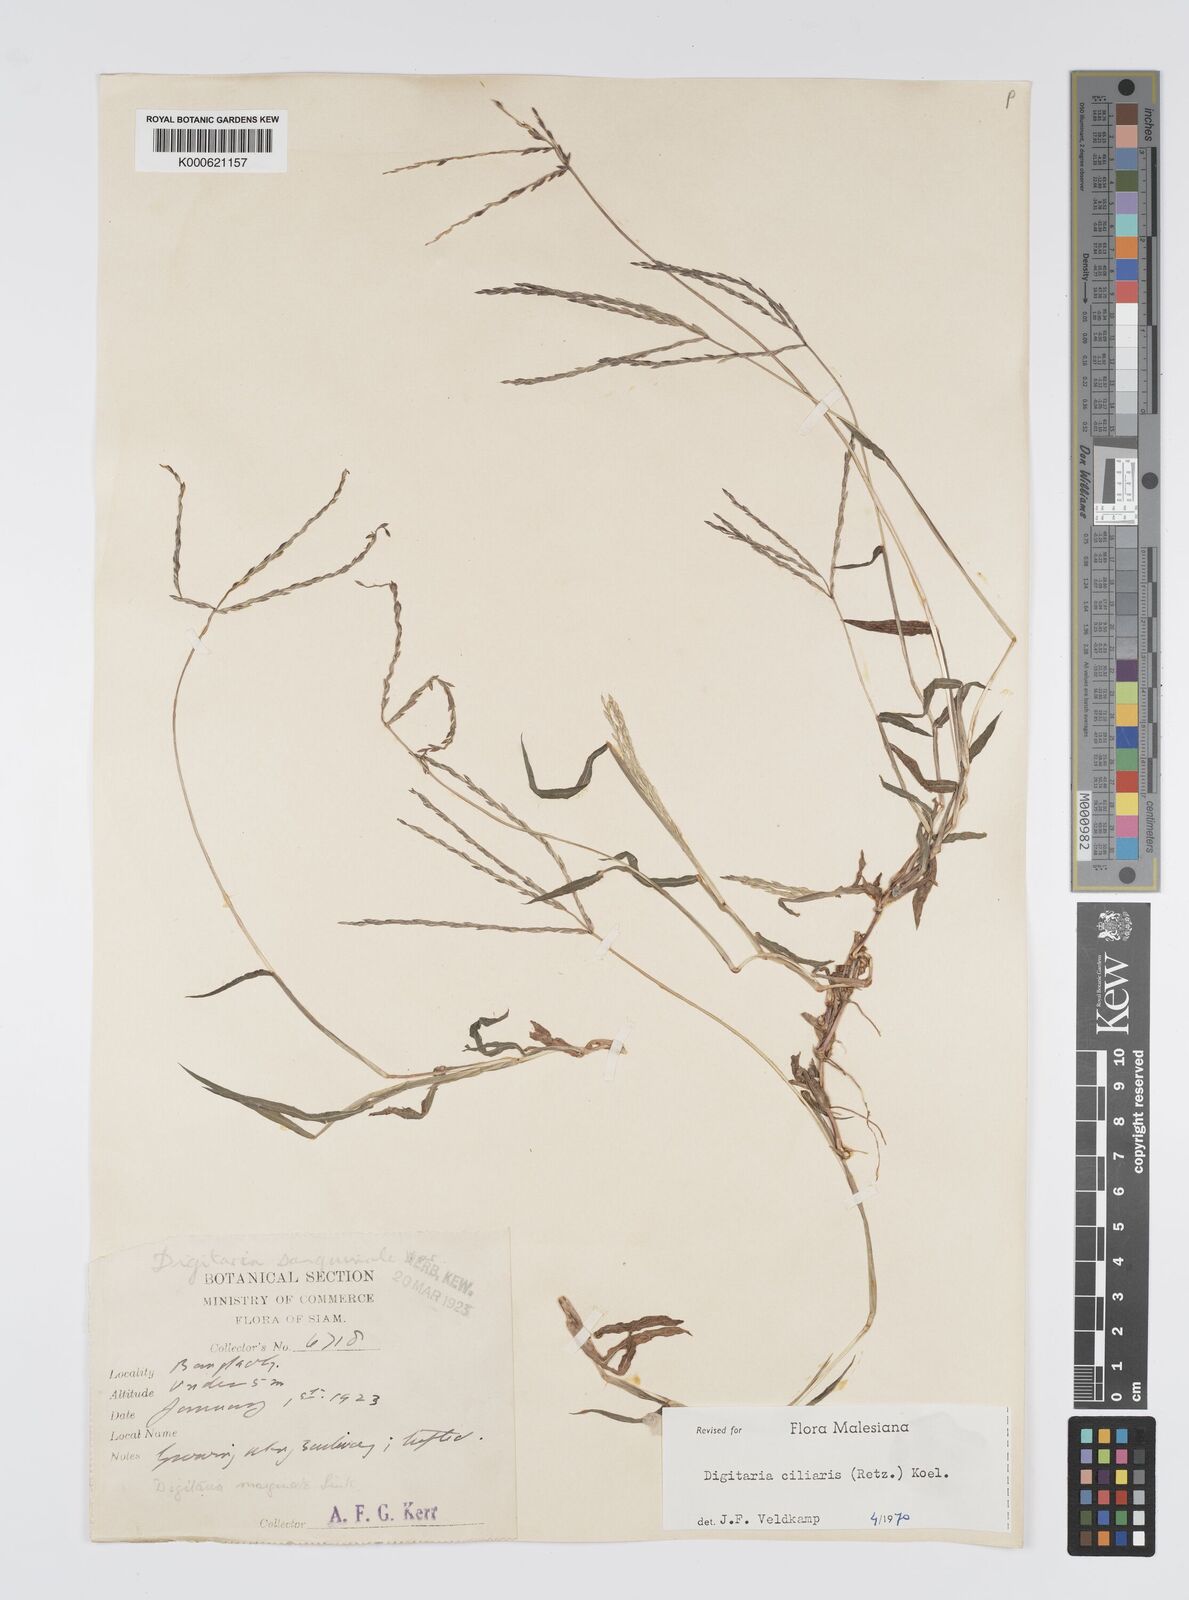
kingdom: Plantae
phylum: Tracheophyta
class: Liliopsida
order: Poales
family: Poaceae
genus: Digitaria
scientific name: Digitaria ciliaris
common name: Tropical finger-grass
